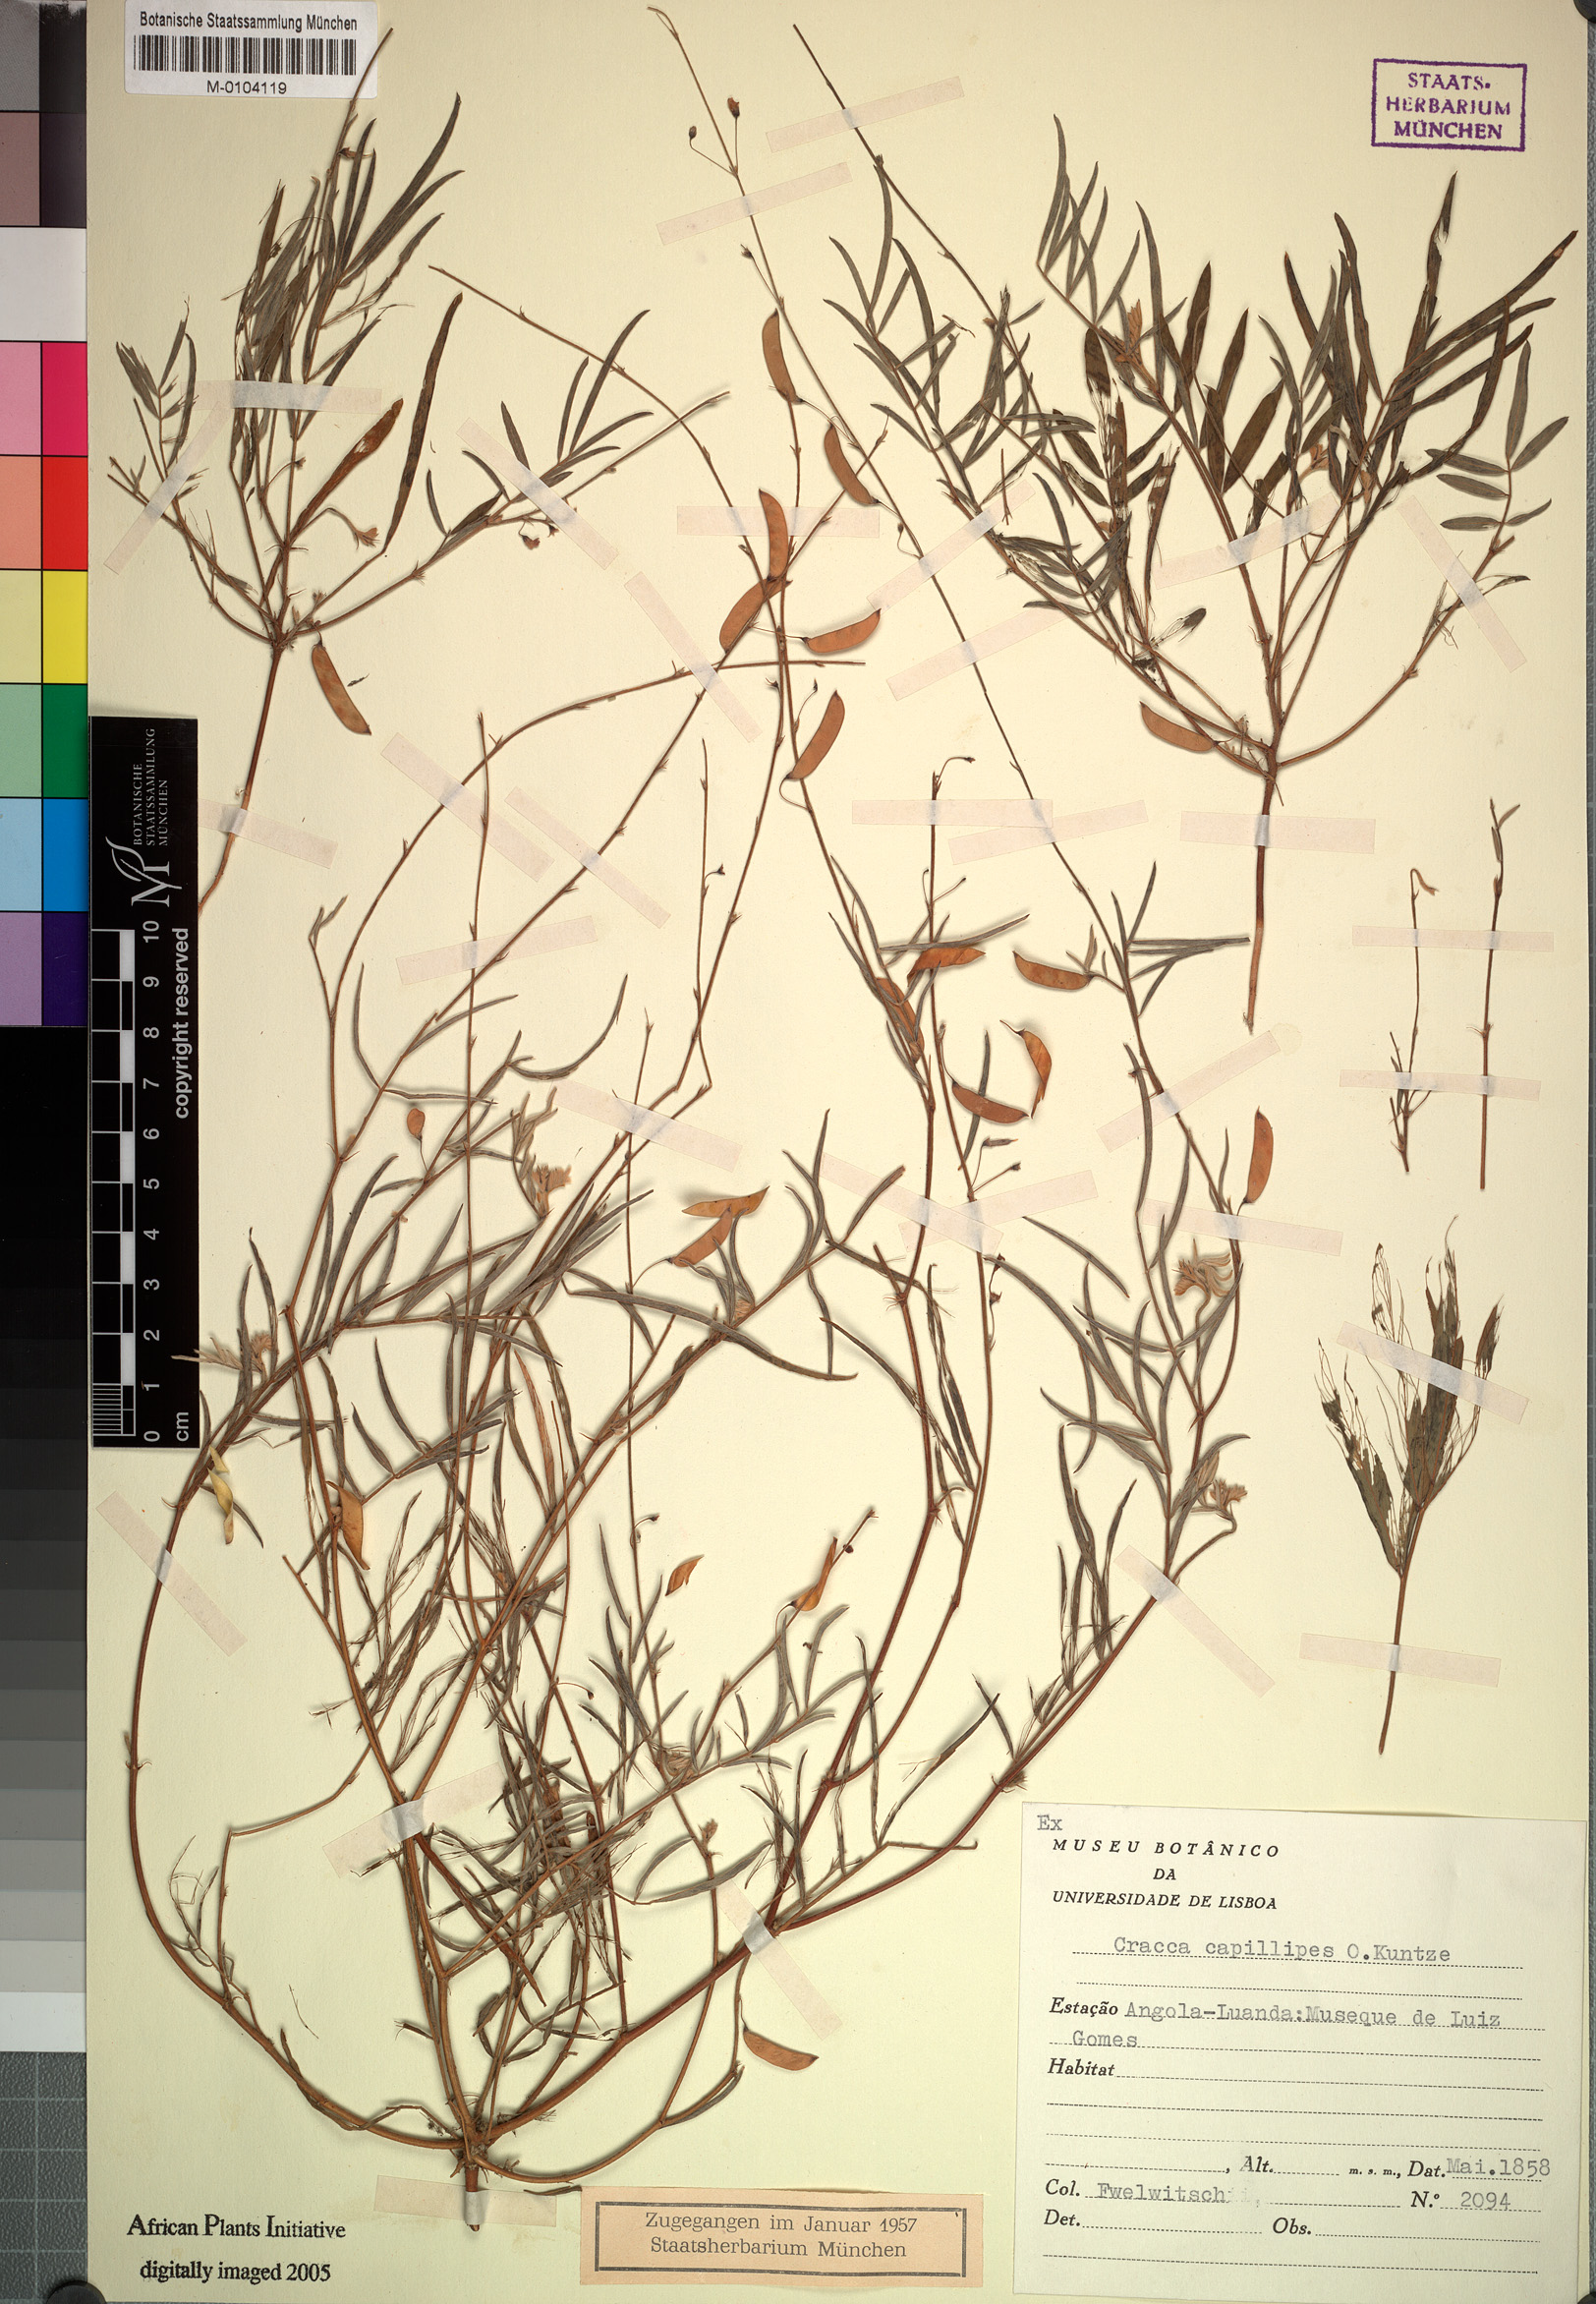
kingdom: Plantae
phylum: Tracheophyta
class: Magnoliopsida
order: Fabales
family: Fabaceae
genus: Tephrosia
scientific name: Tephrosia dregeana
